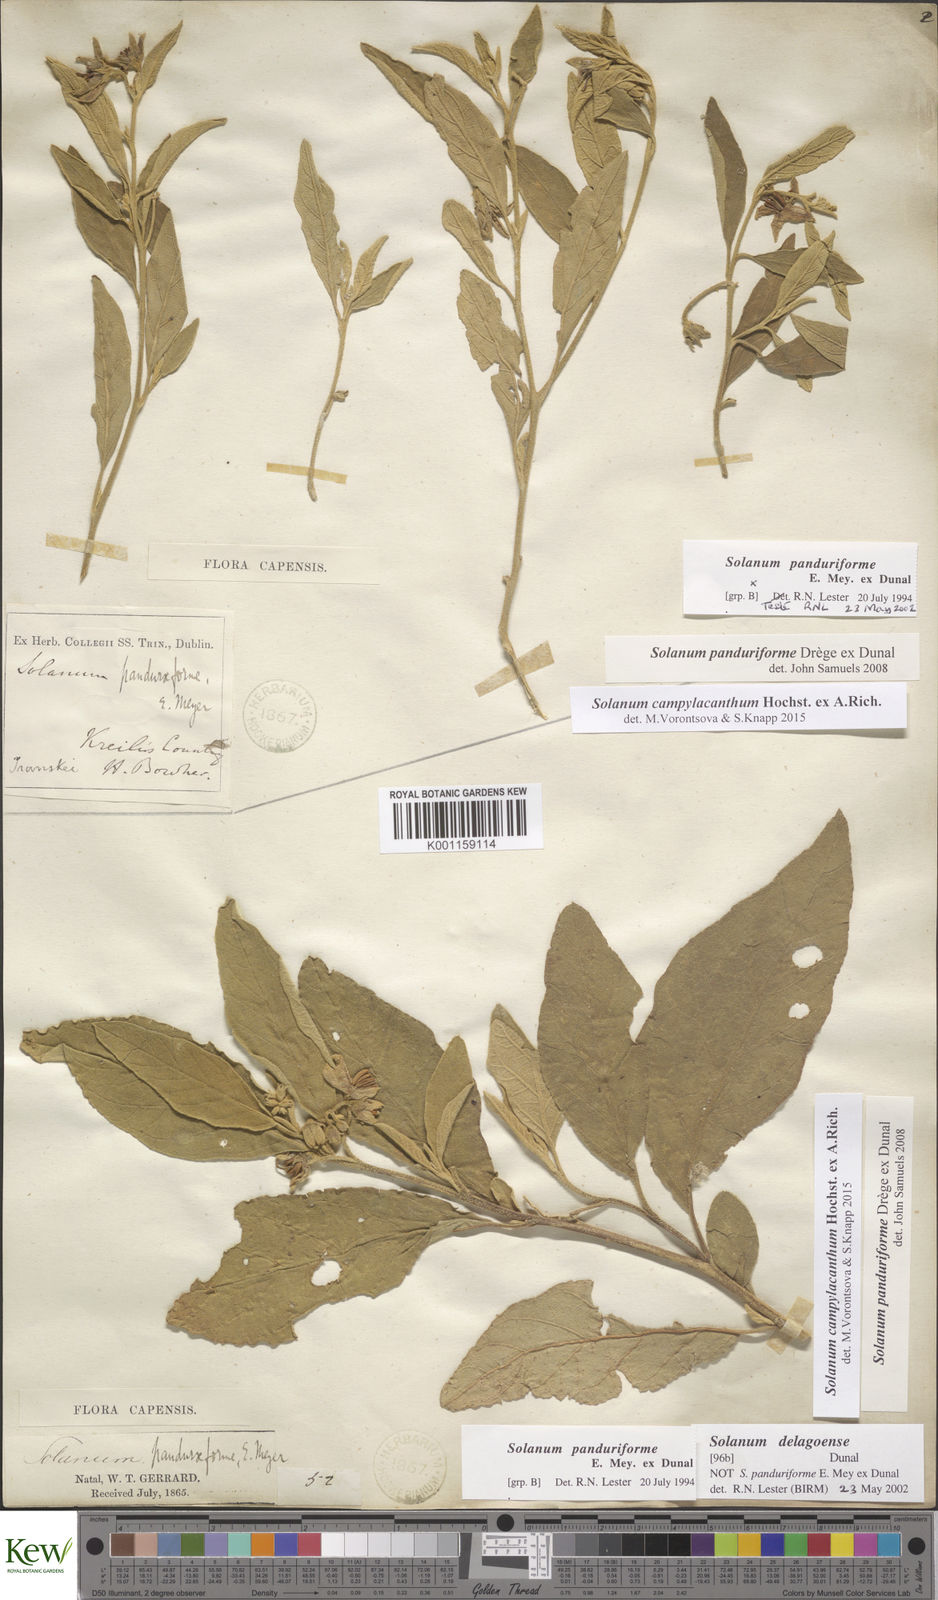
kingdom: Plantae
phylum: Tracheophyta
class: Magnoliopsida
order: Solanales
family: Solanaceae
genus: Solanum
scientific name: Solanum campylacanthum
